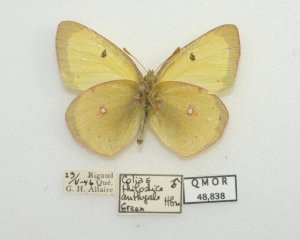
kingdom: Animalia
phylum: Arthropoda
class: Insecta
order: Lepidoptera
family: Pieridae
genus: Colias
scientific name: Colias
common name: Clouded Yellows
